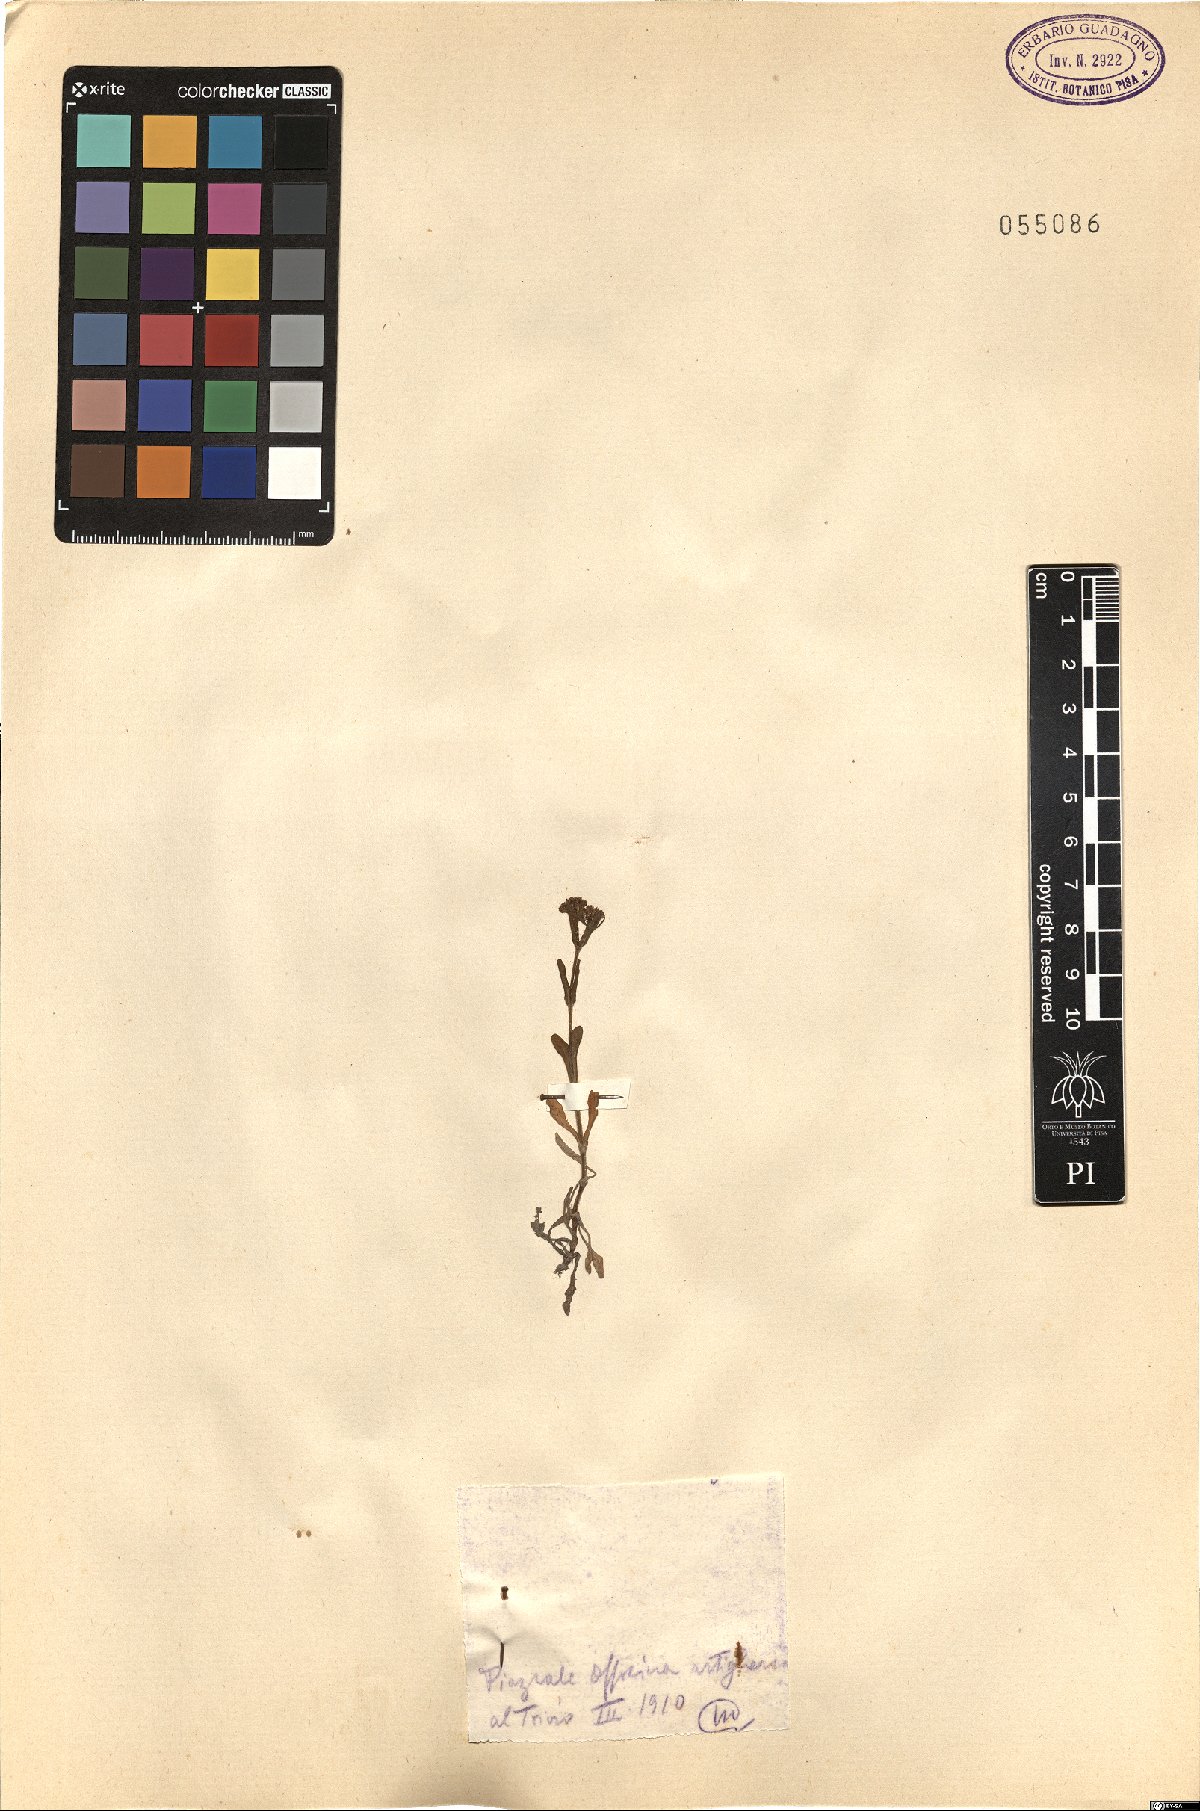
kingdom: Plantae
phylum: Tracheophyta
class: Magnoliopsida
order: Dipsacales
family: Caprifoliaceae
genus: Valerianella
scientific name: Valerianella
